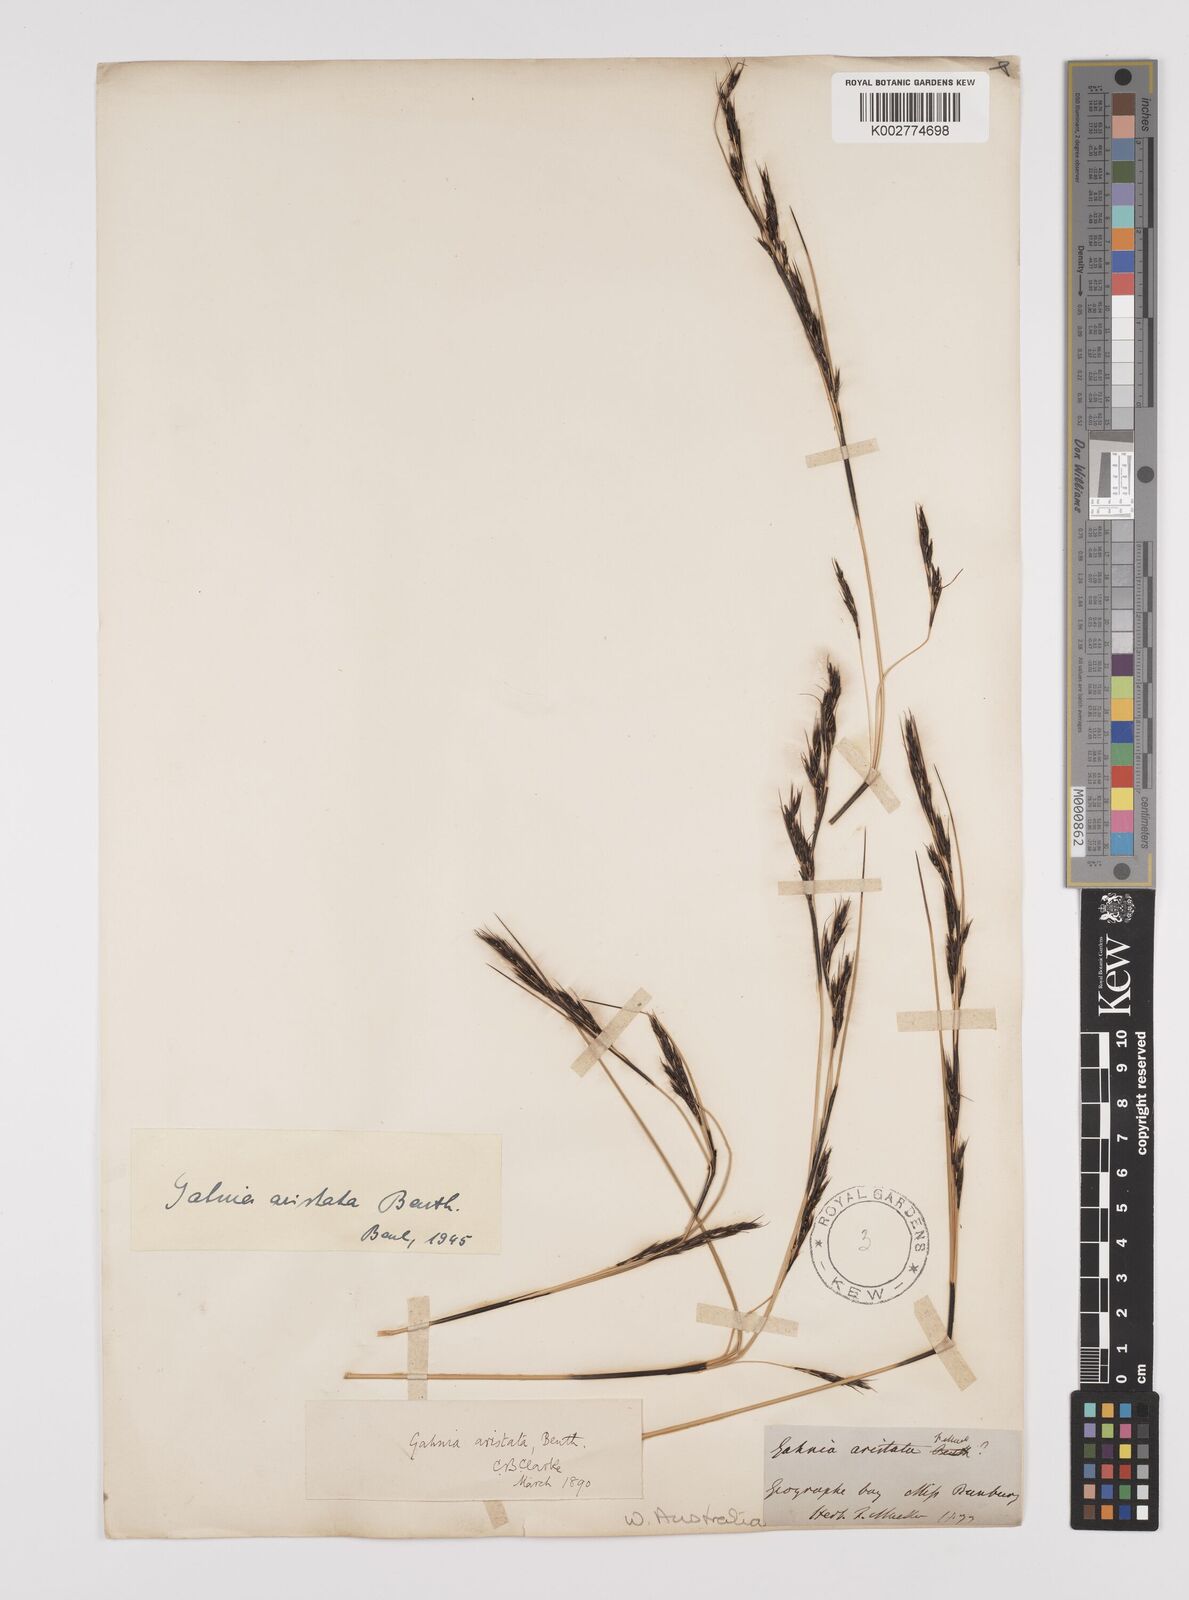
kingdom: Plantae
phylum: Tracheophyta
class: Liliopsida
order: Poales
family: Cyperaceae
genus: Machaerina
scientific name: Machaerina articulata
